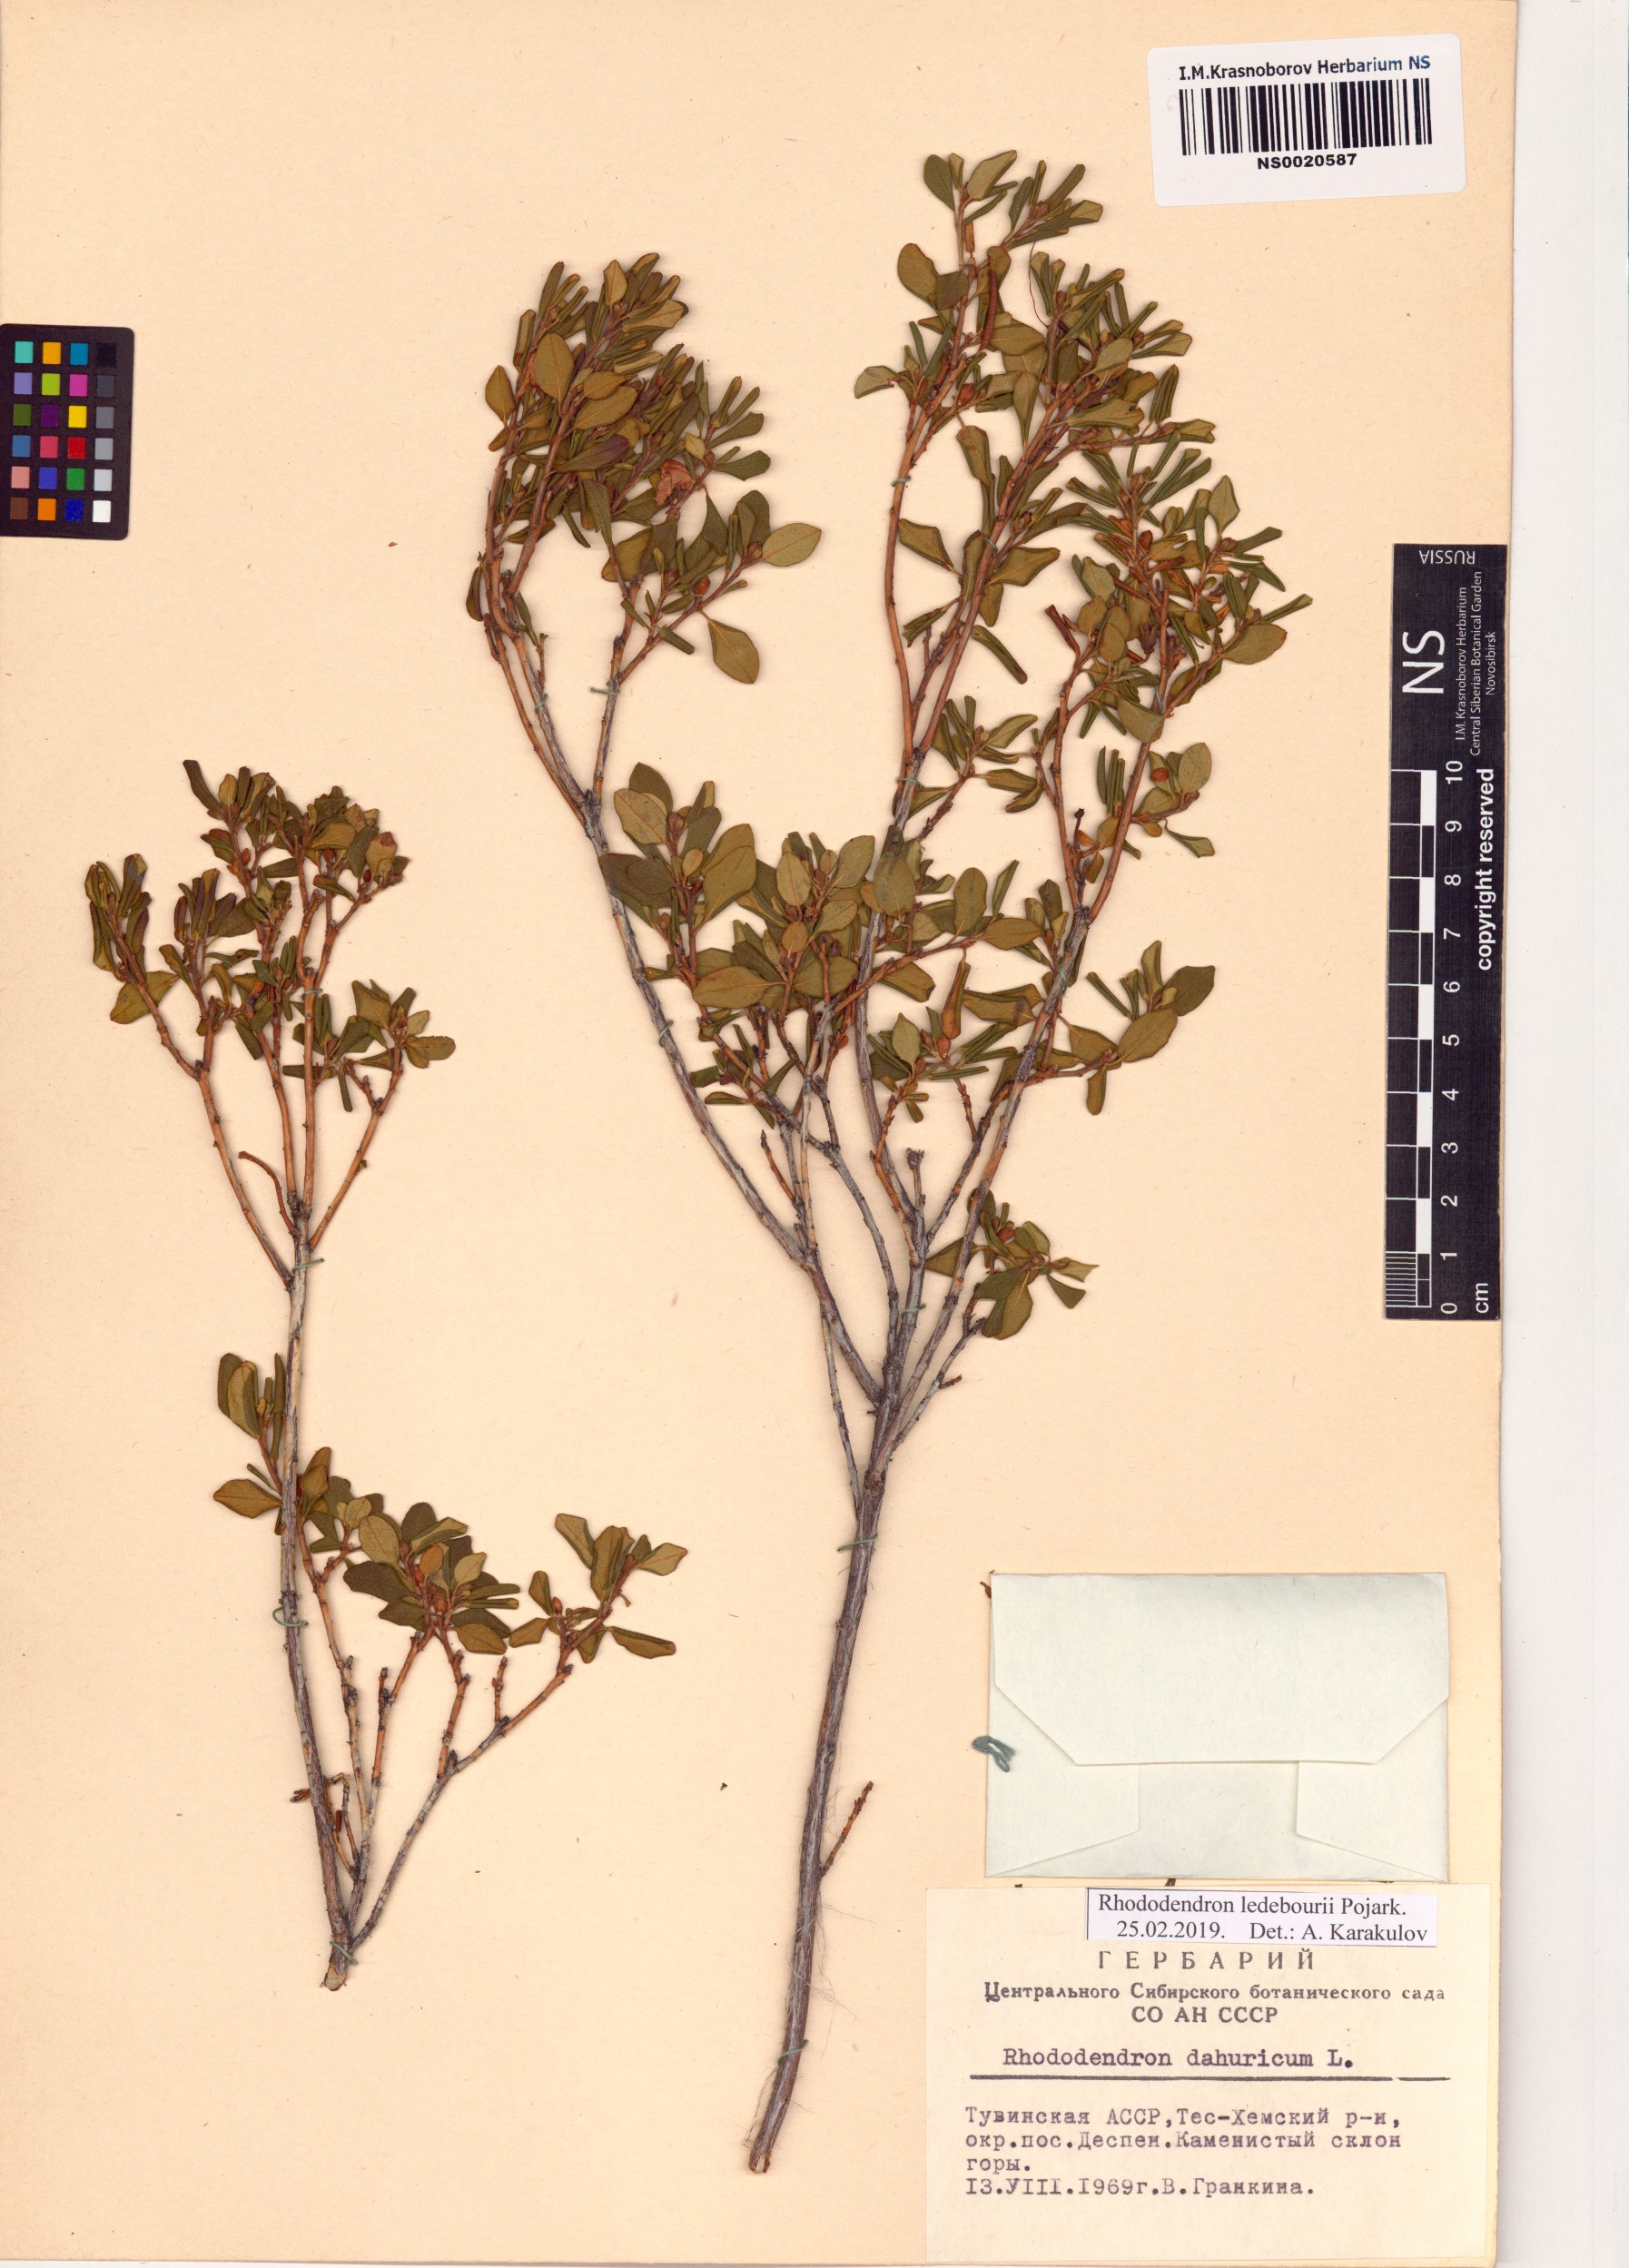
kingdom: Plantae
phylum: Tracheophyta
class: Magnoliopsida
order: Ericales
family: Ericaceae
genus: Rhododendron
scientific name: Rhododendron dauricum
